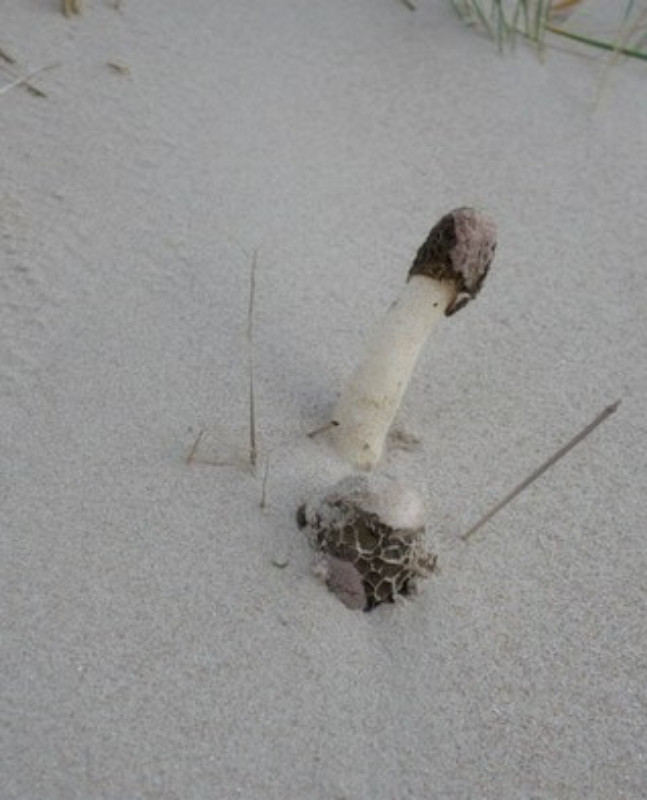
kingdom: Fungi
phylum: Basidiomycota
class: Agaricomycetes
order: Phallales
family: Phallaceae
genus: Phallus
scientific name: Phallus hadriani
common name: sand-stinksvamp
